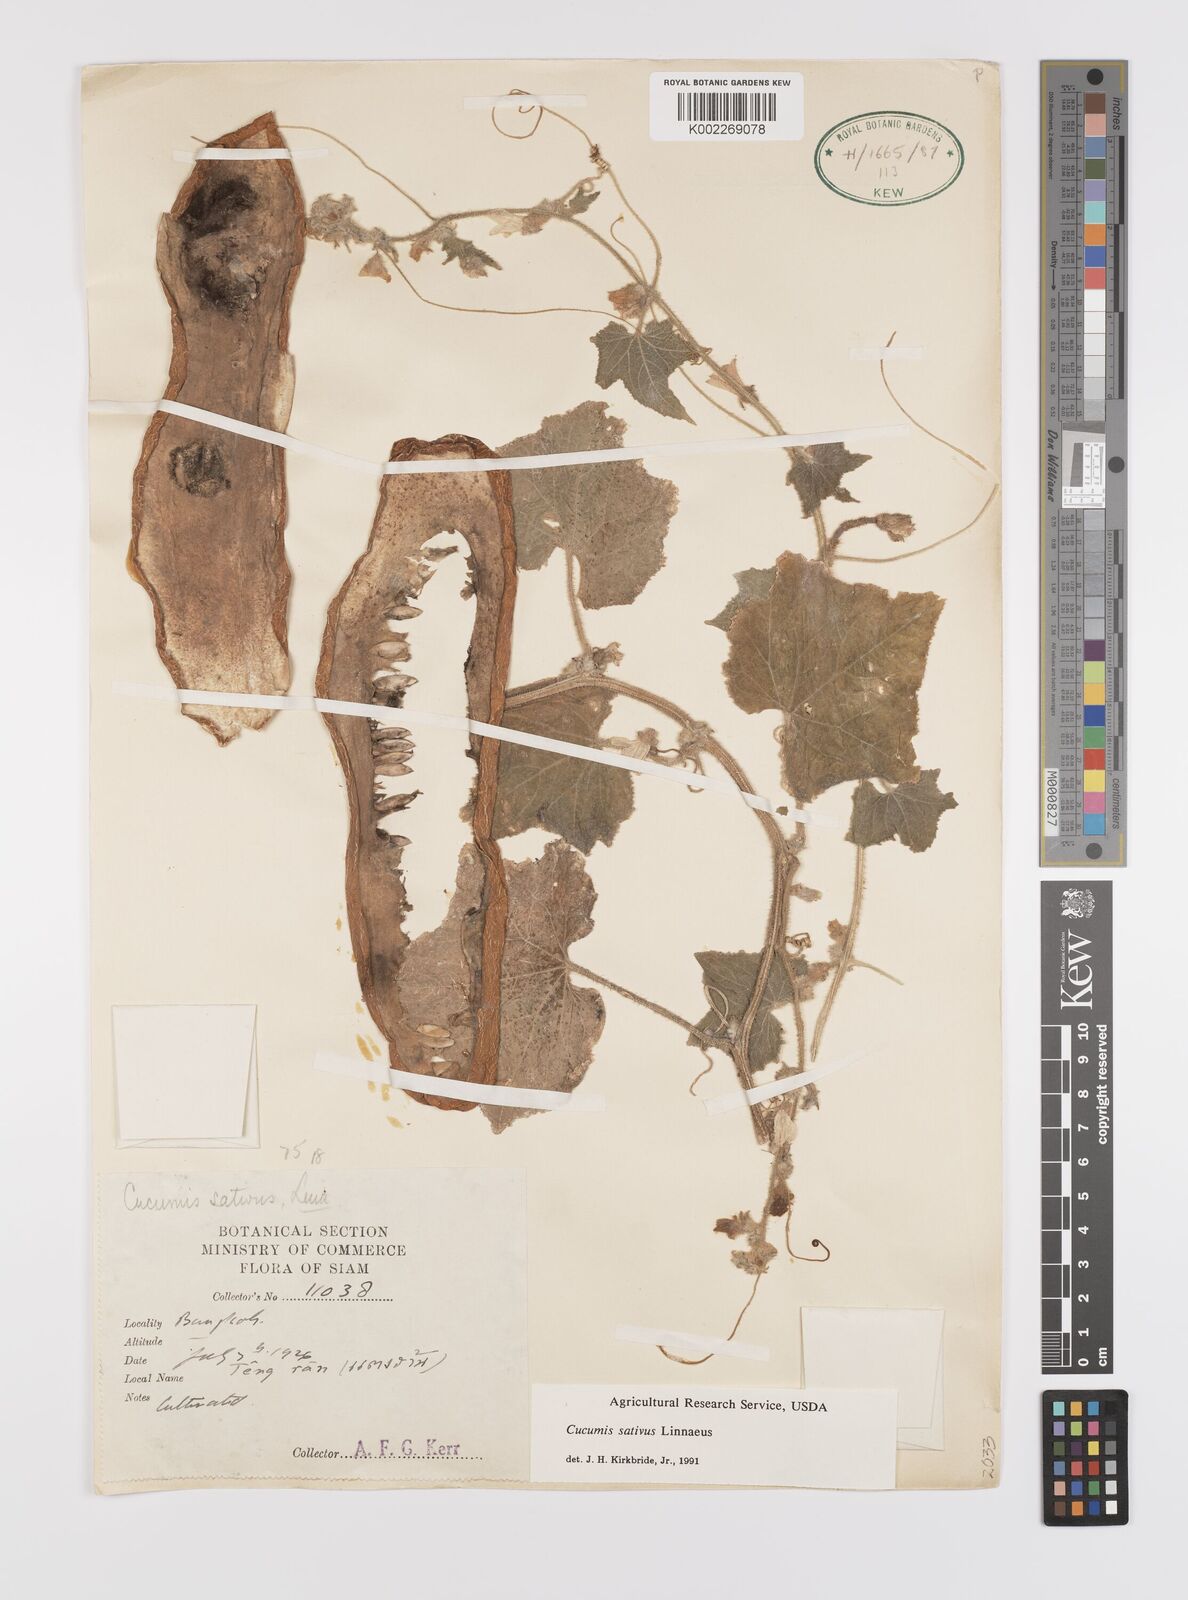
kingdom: Plantae
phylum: Tracheophyta
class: Magnoliopsida
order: Cucurbitales
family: Cucurbitaceae
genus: Cucumis
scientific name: Cucumis sativus
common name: Cucumber
